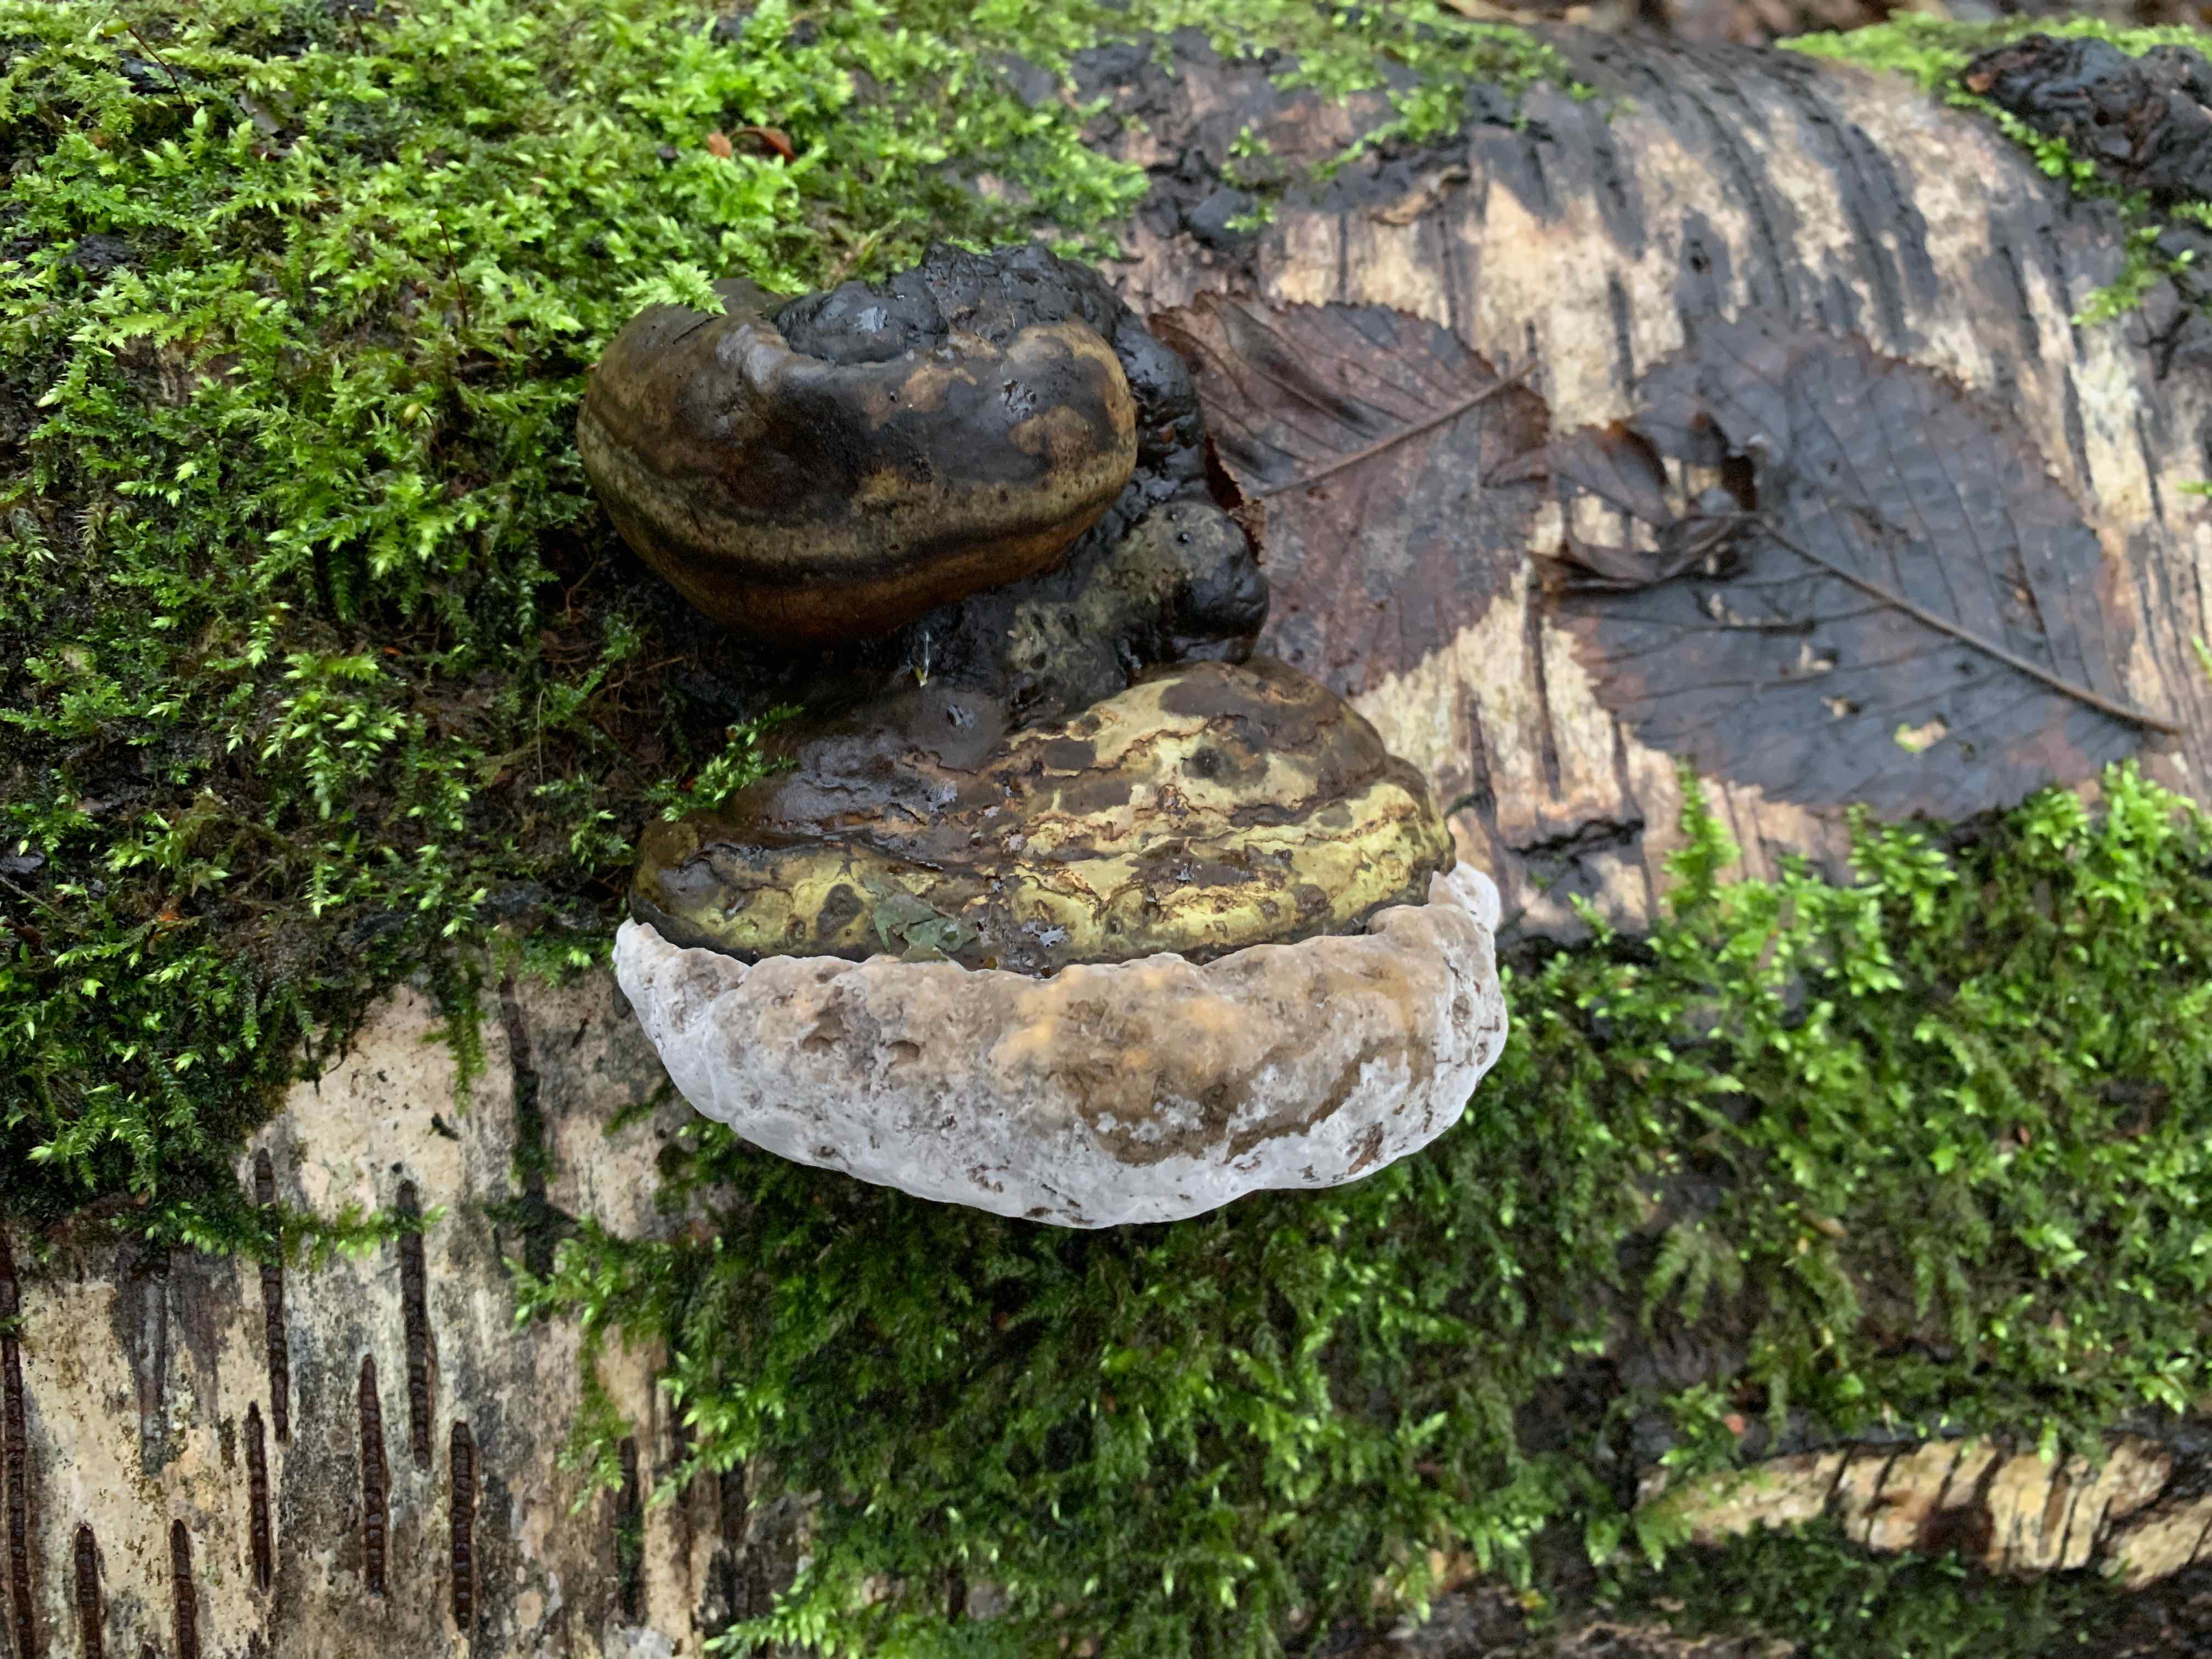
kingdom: Fungi
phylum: Basidiomycota
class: Agaricomycetes
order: Polyporales
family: Polyporaceae
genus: Fomes
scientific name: Fomes fomentarius
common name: tøndersvamp
